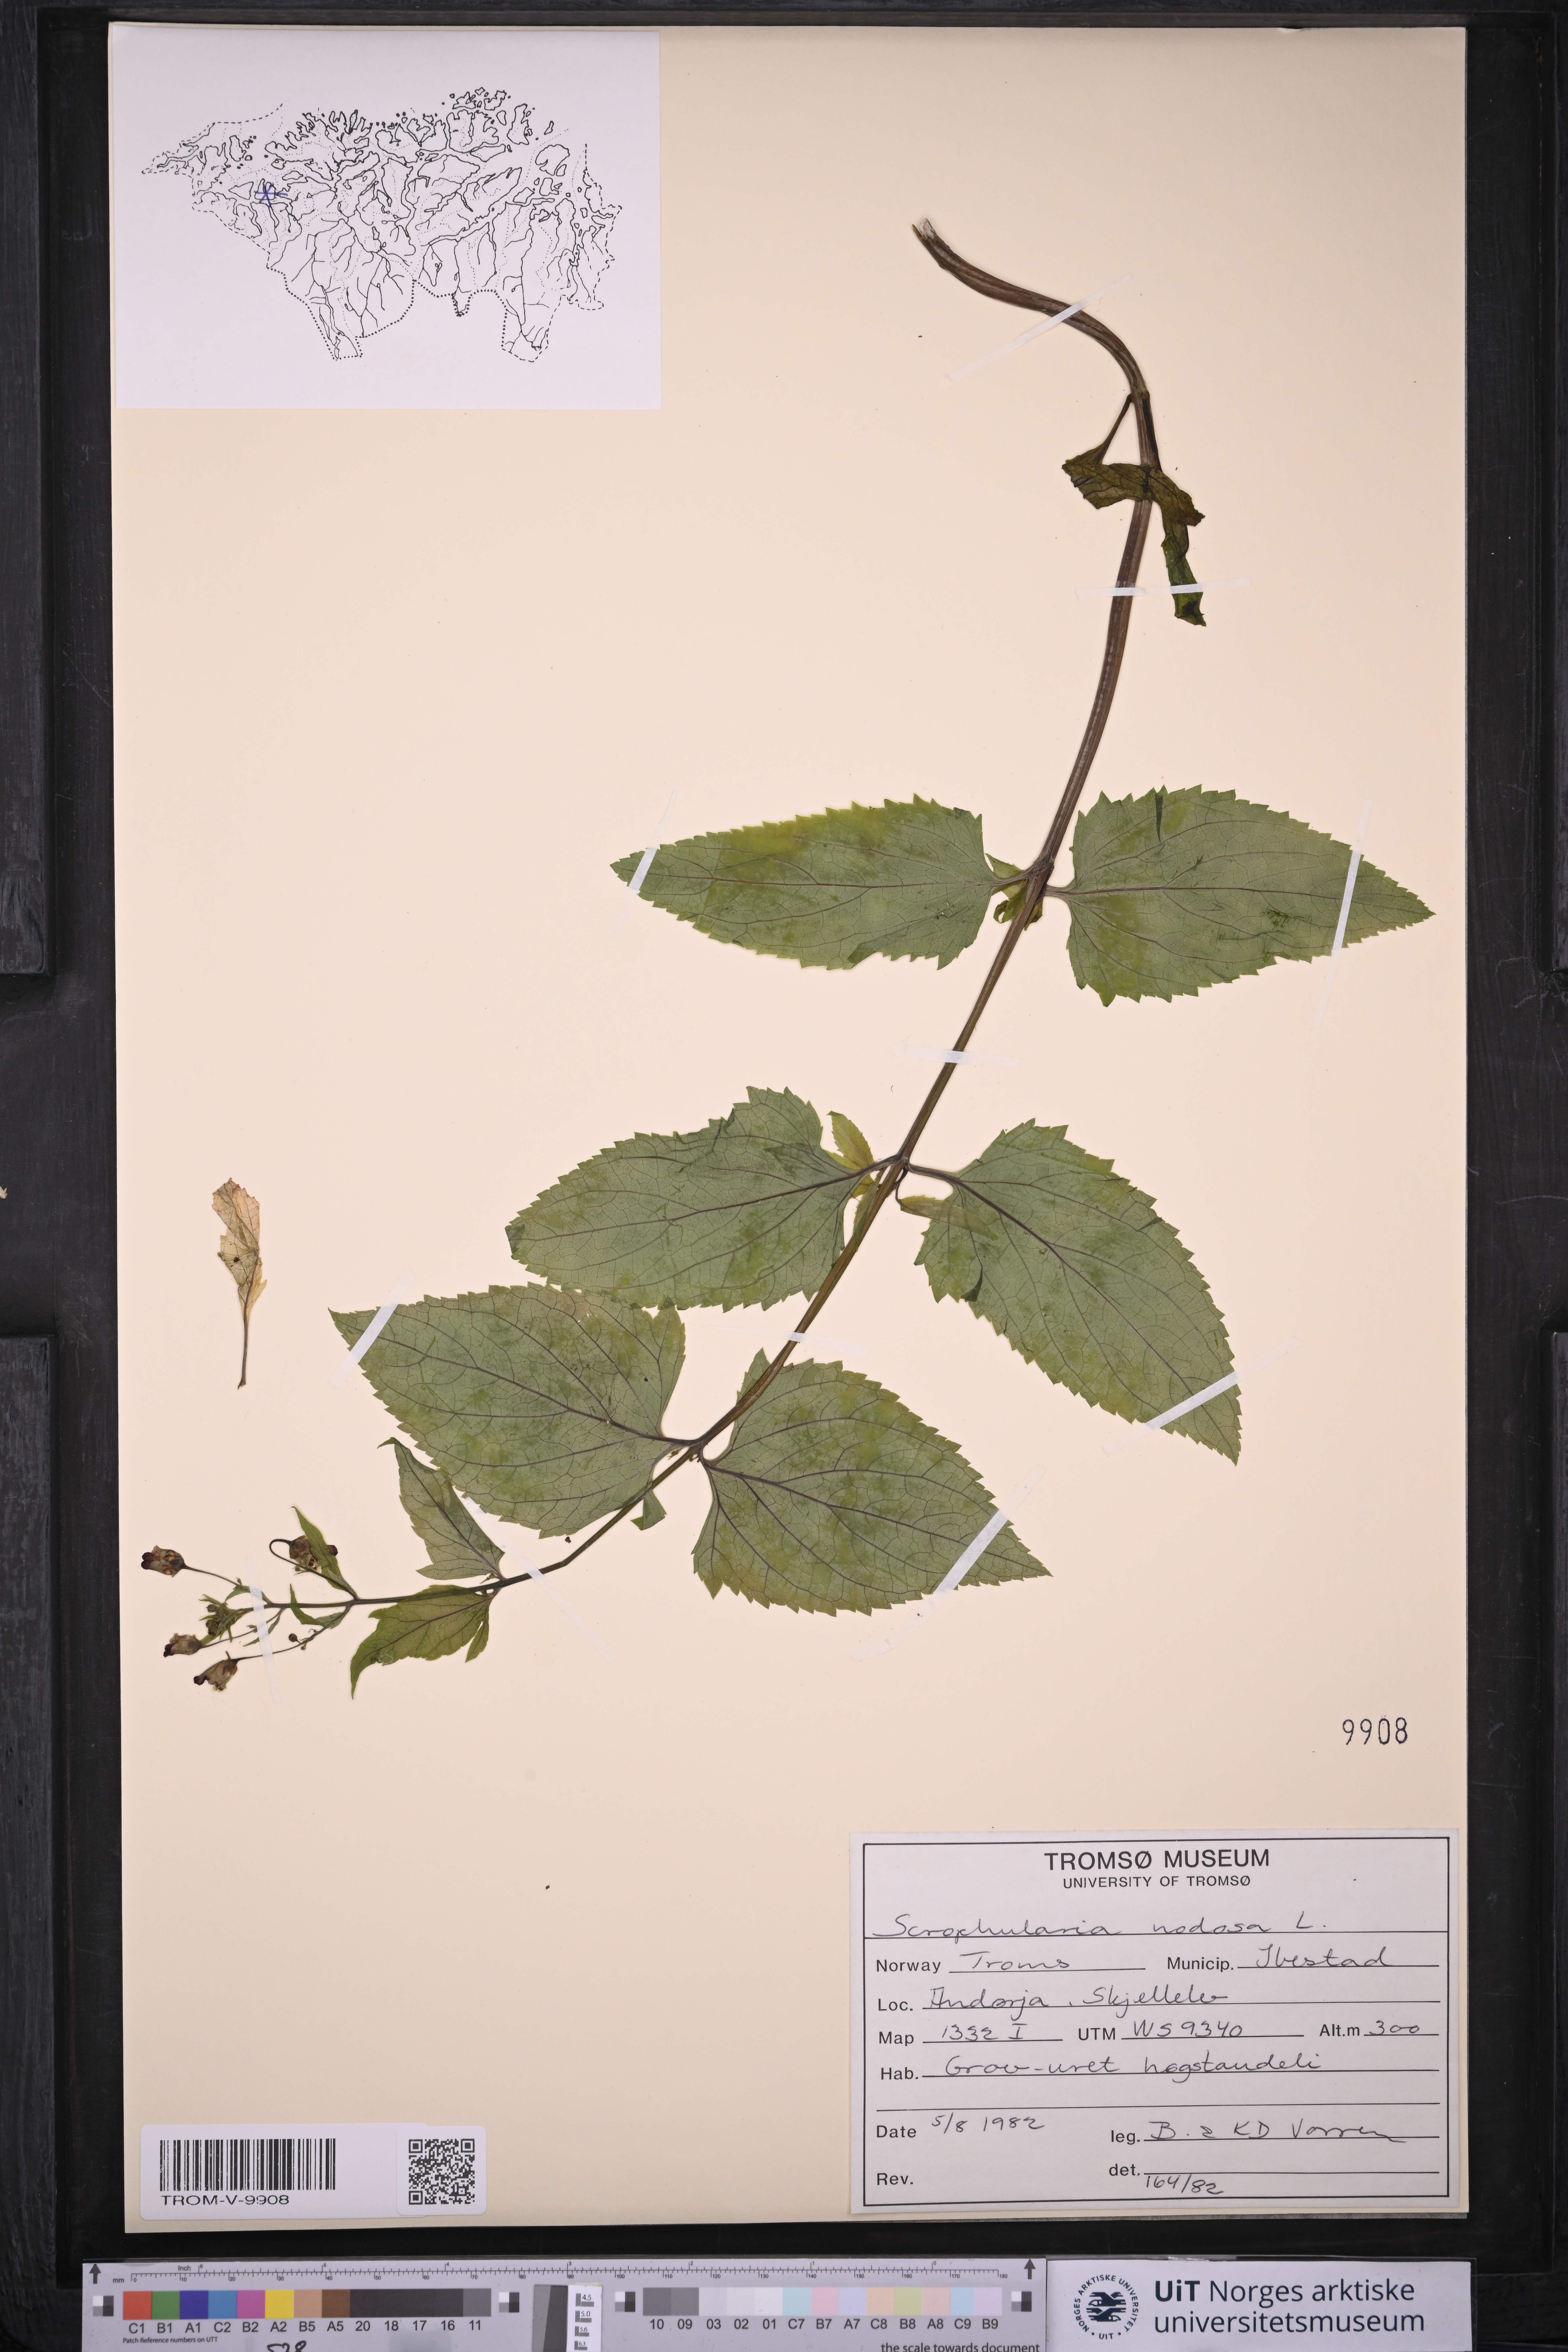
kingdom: Plantae
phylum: Tracheophyta
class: Magnoliopsida
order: Lamiales
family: Scrophulariaceae
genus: Scrophularia
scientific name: Scrophularia nodosa
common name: Common figwort
